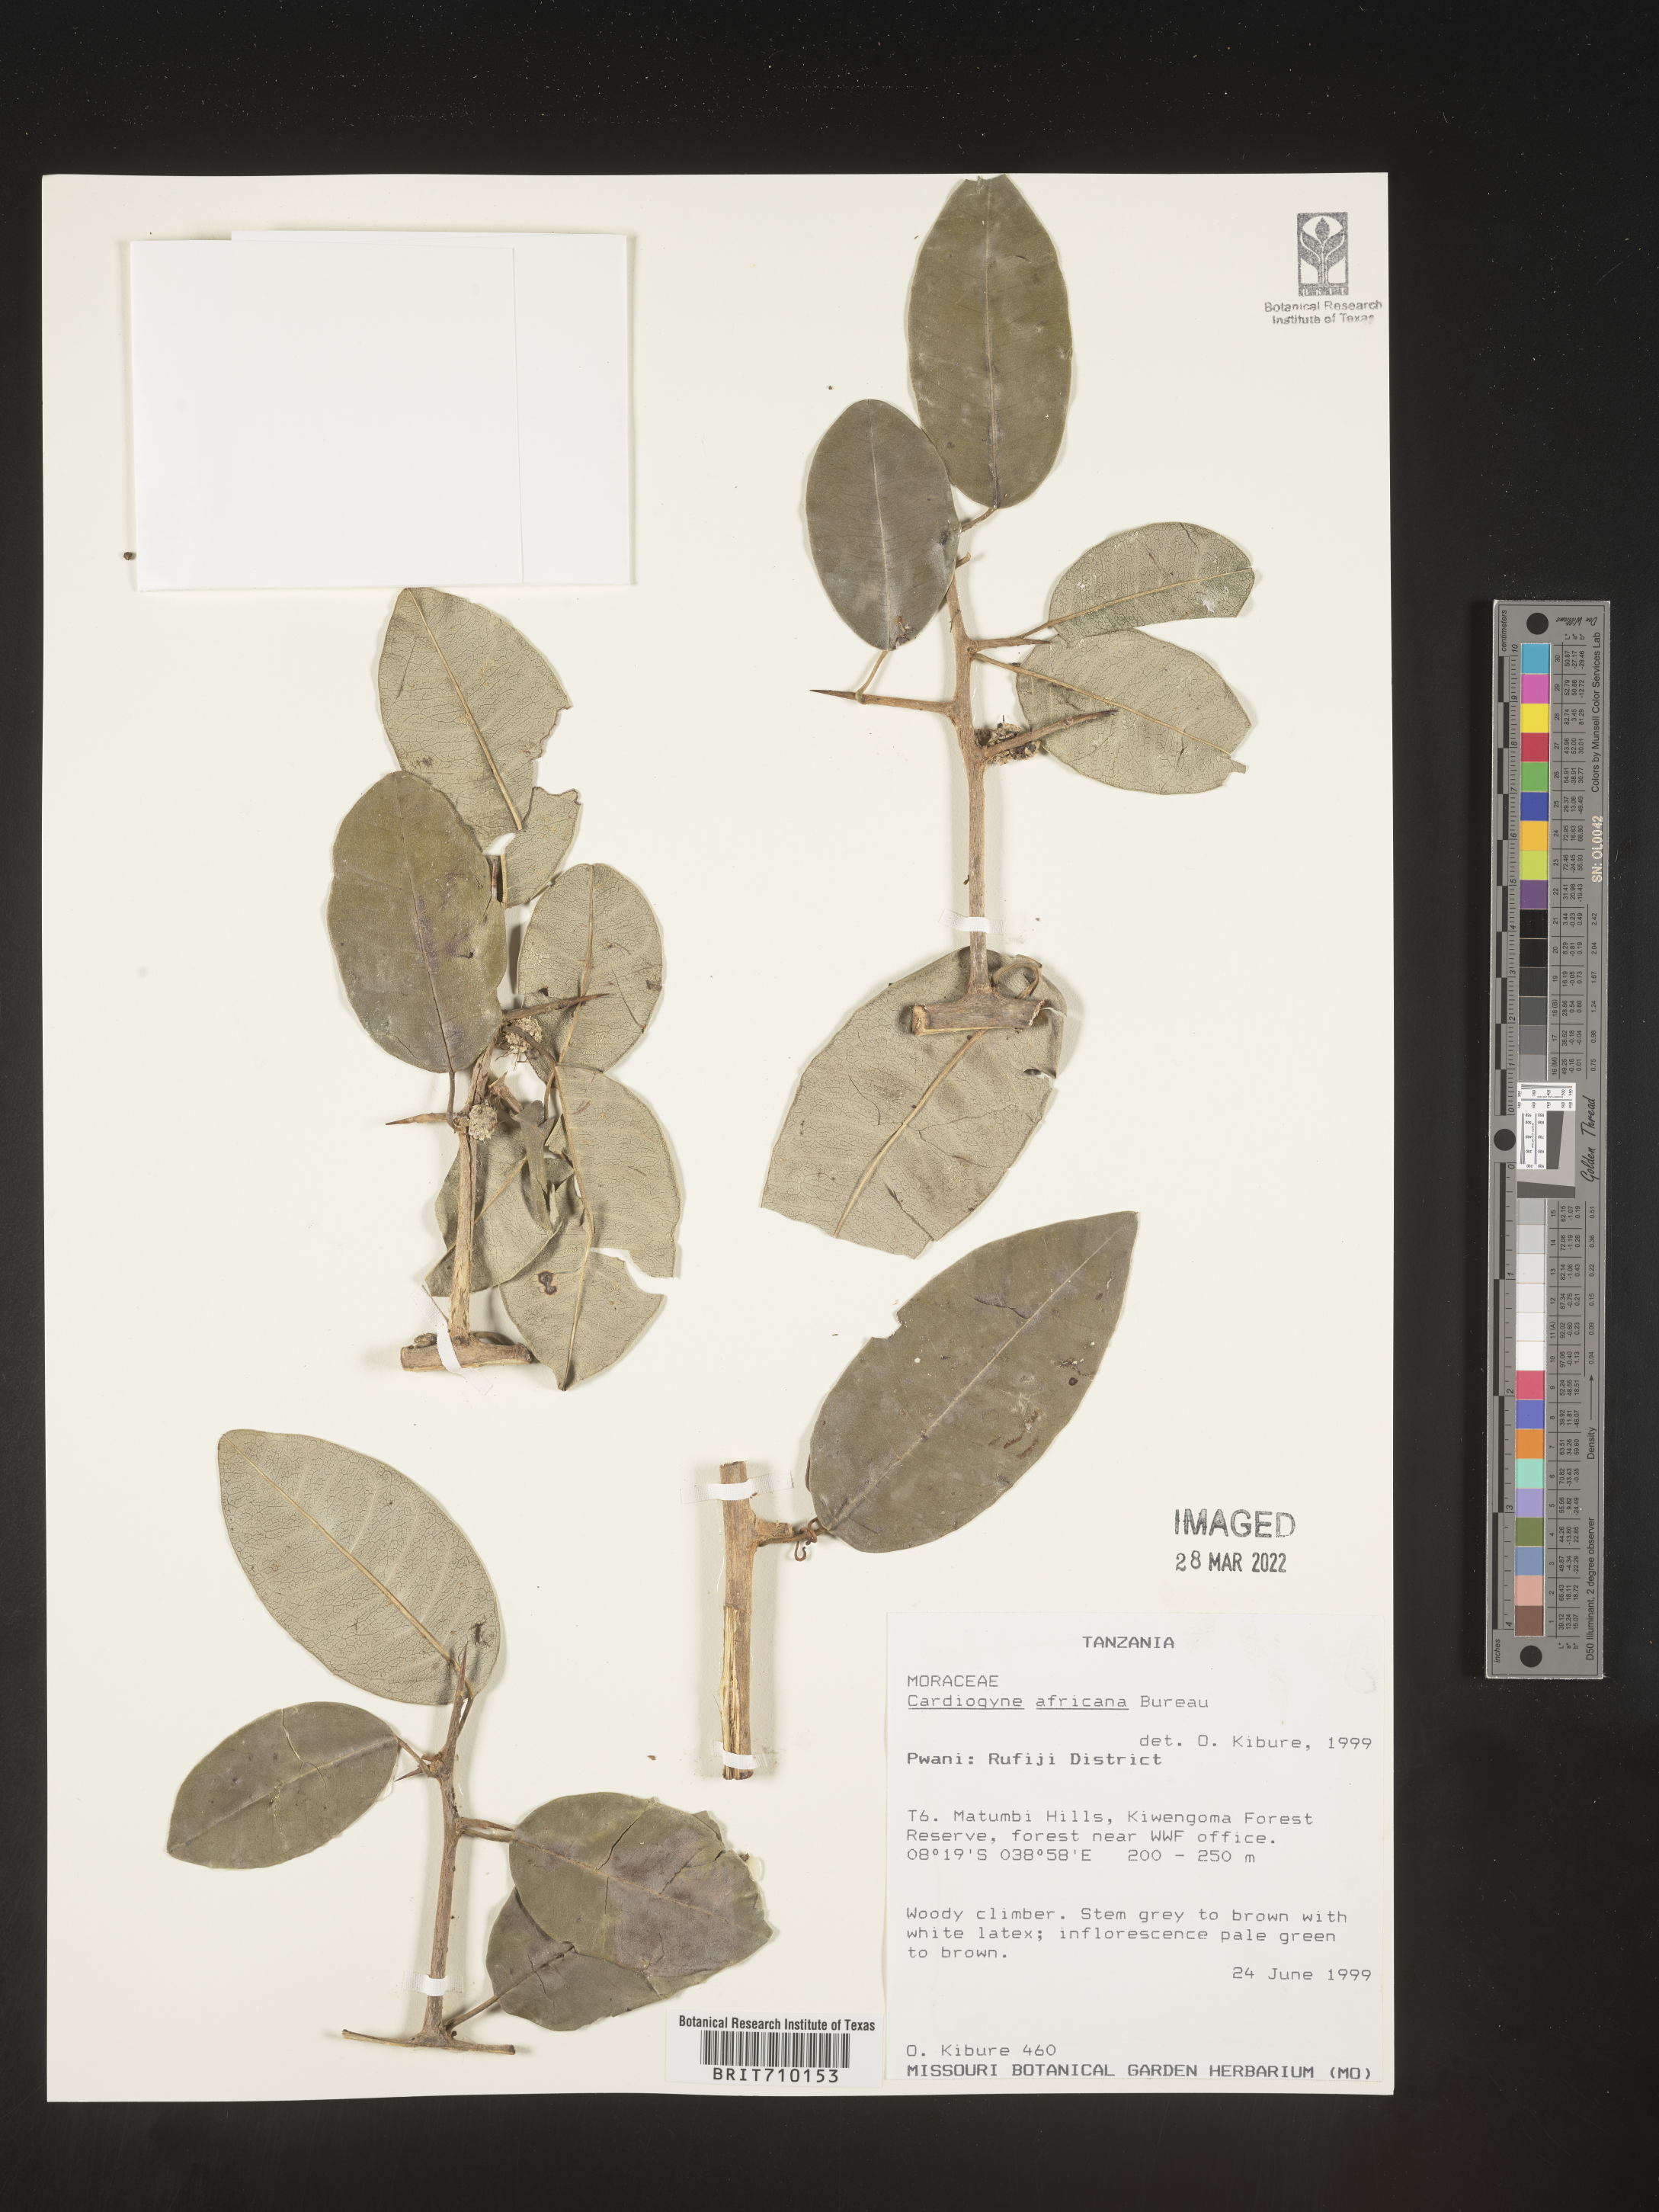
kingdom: Plantae
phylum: Tracheophyta
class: Magnoliopsida
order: Rosales
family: Moraceae
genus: Maclura
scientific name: Maclura
